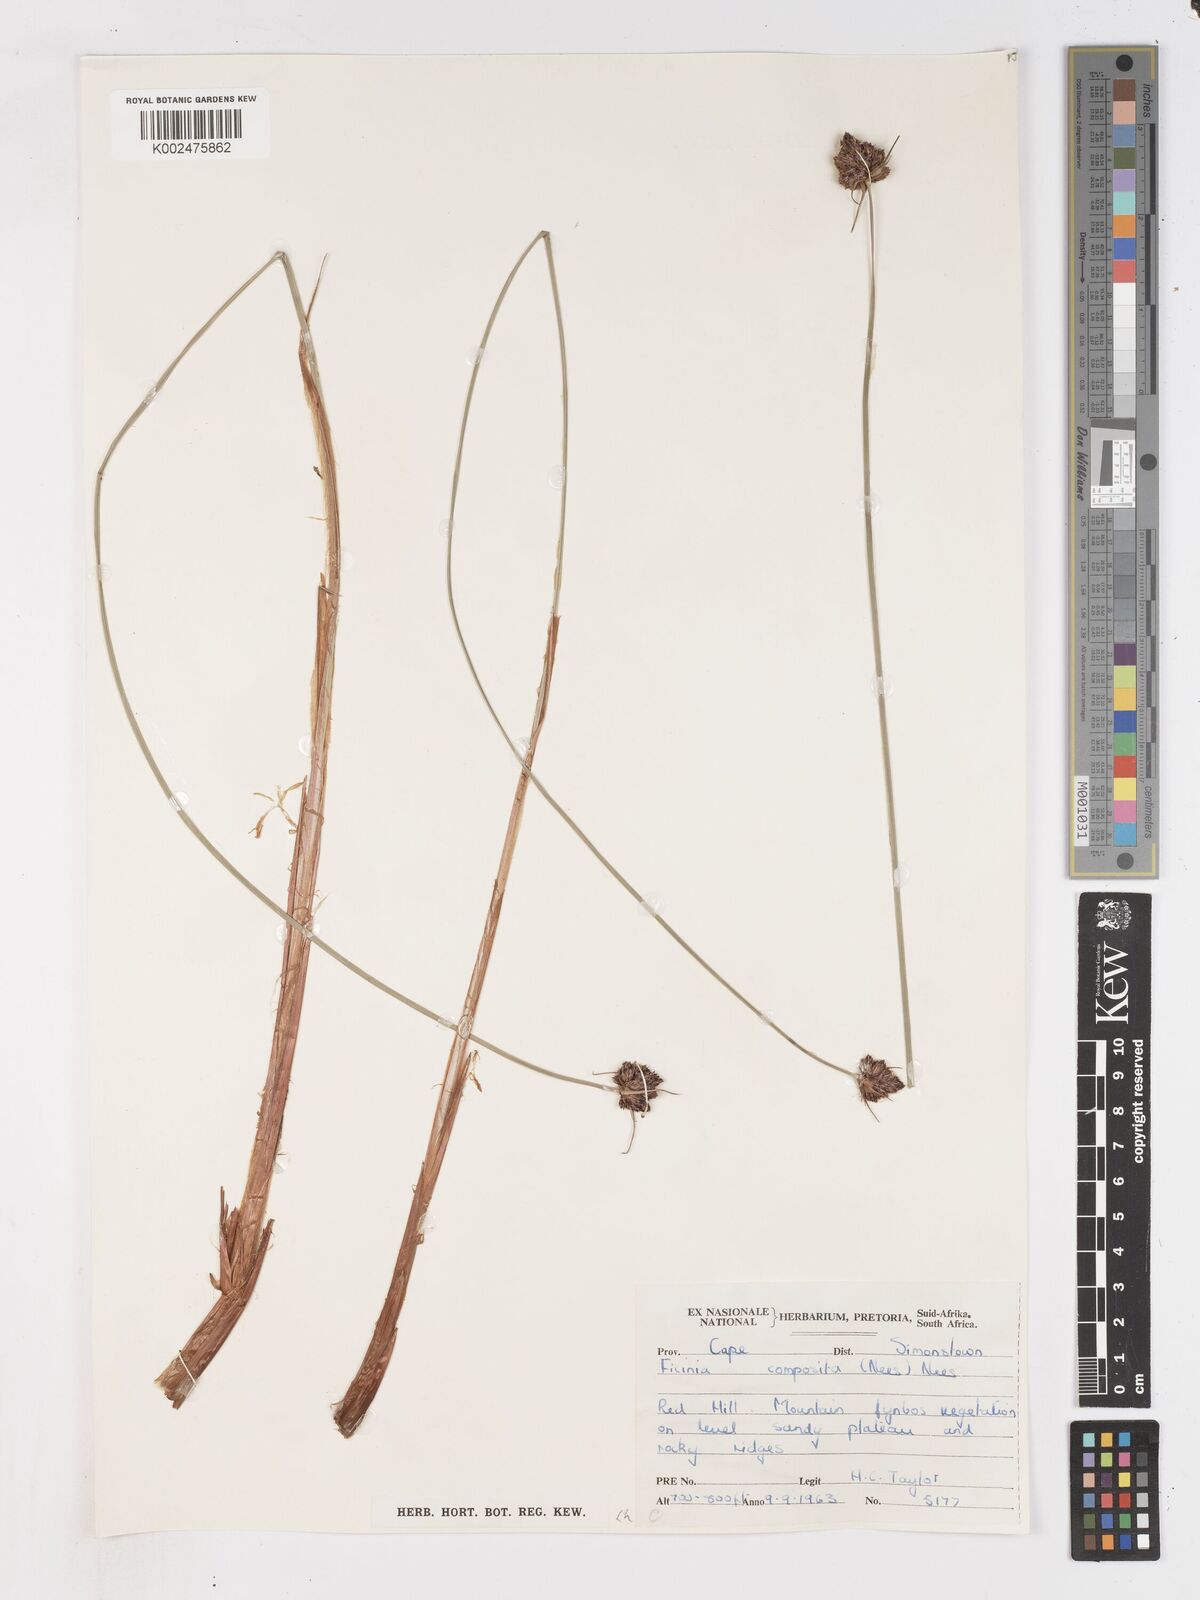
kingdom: Plantae
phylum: Tracheophyta
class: Liliopsida
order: Poales
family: Cyperaceae
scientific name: Cyperaceae
